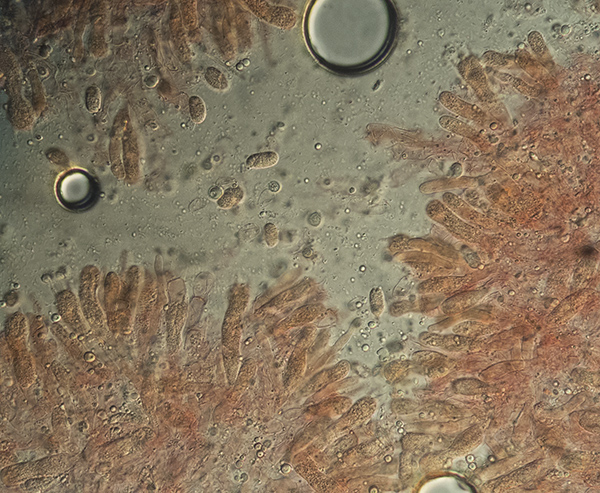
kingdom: Fungi
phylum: Basidiomycota
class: Agaricomycetes
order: Polyporales
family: Hyphodermataceae
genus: Hyphoderma
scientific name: Hyphoderma cremeoalbum
